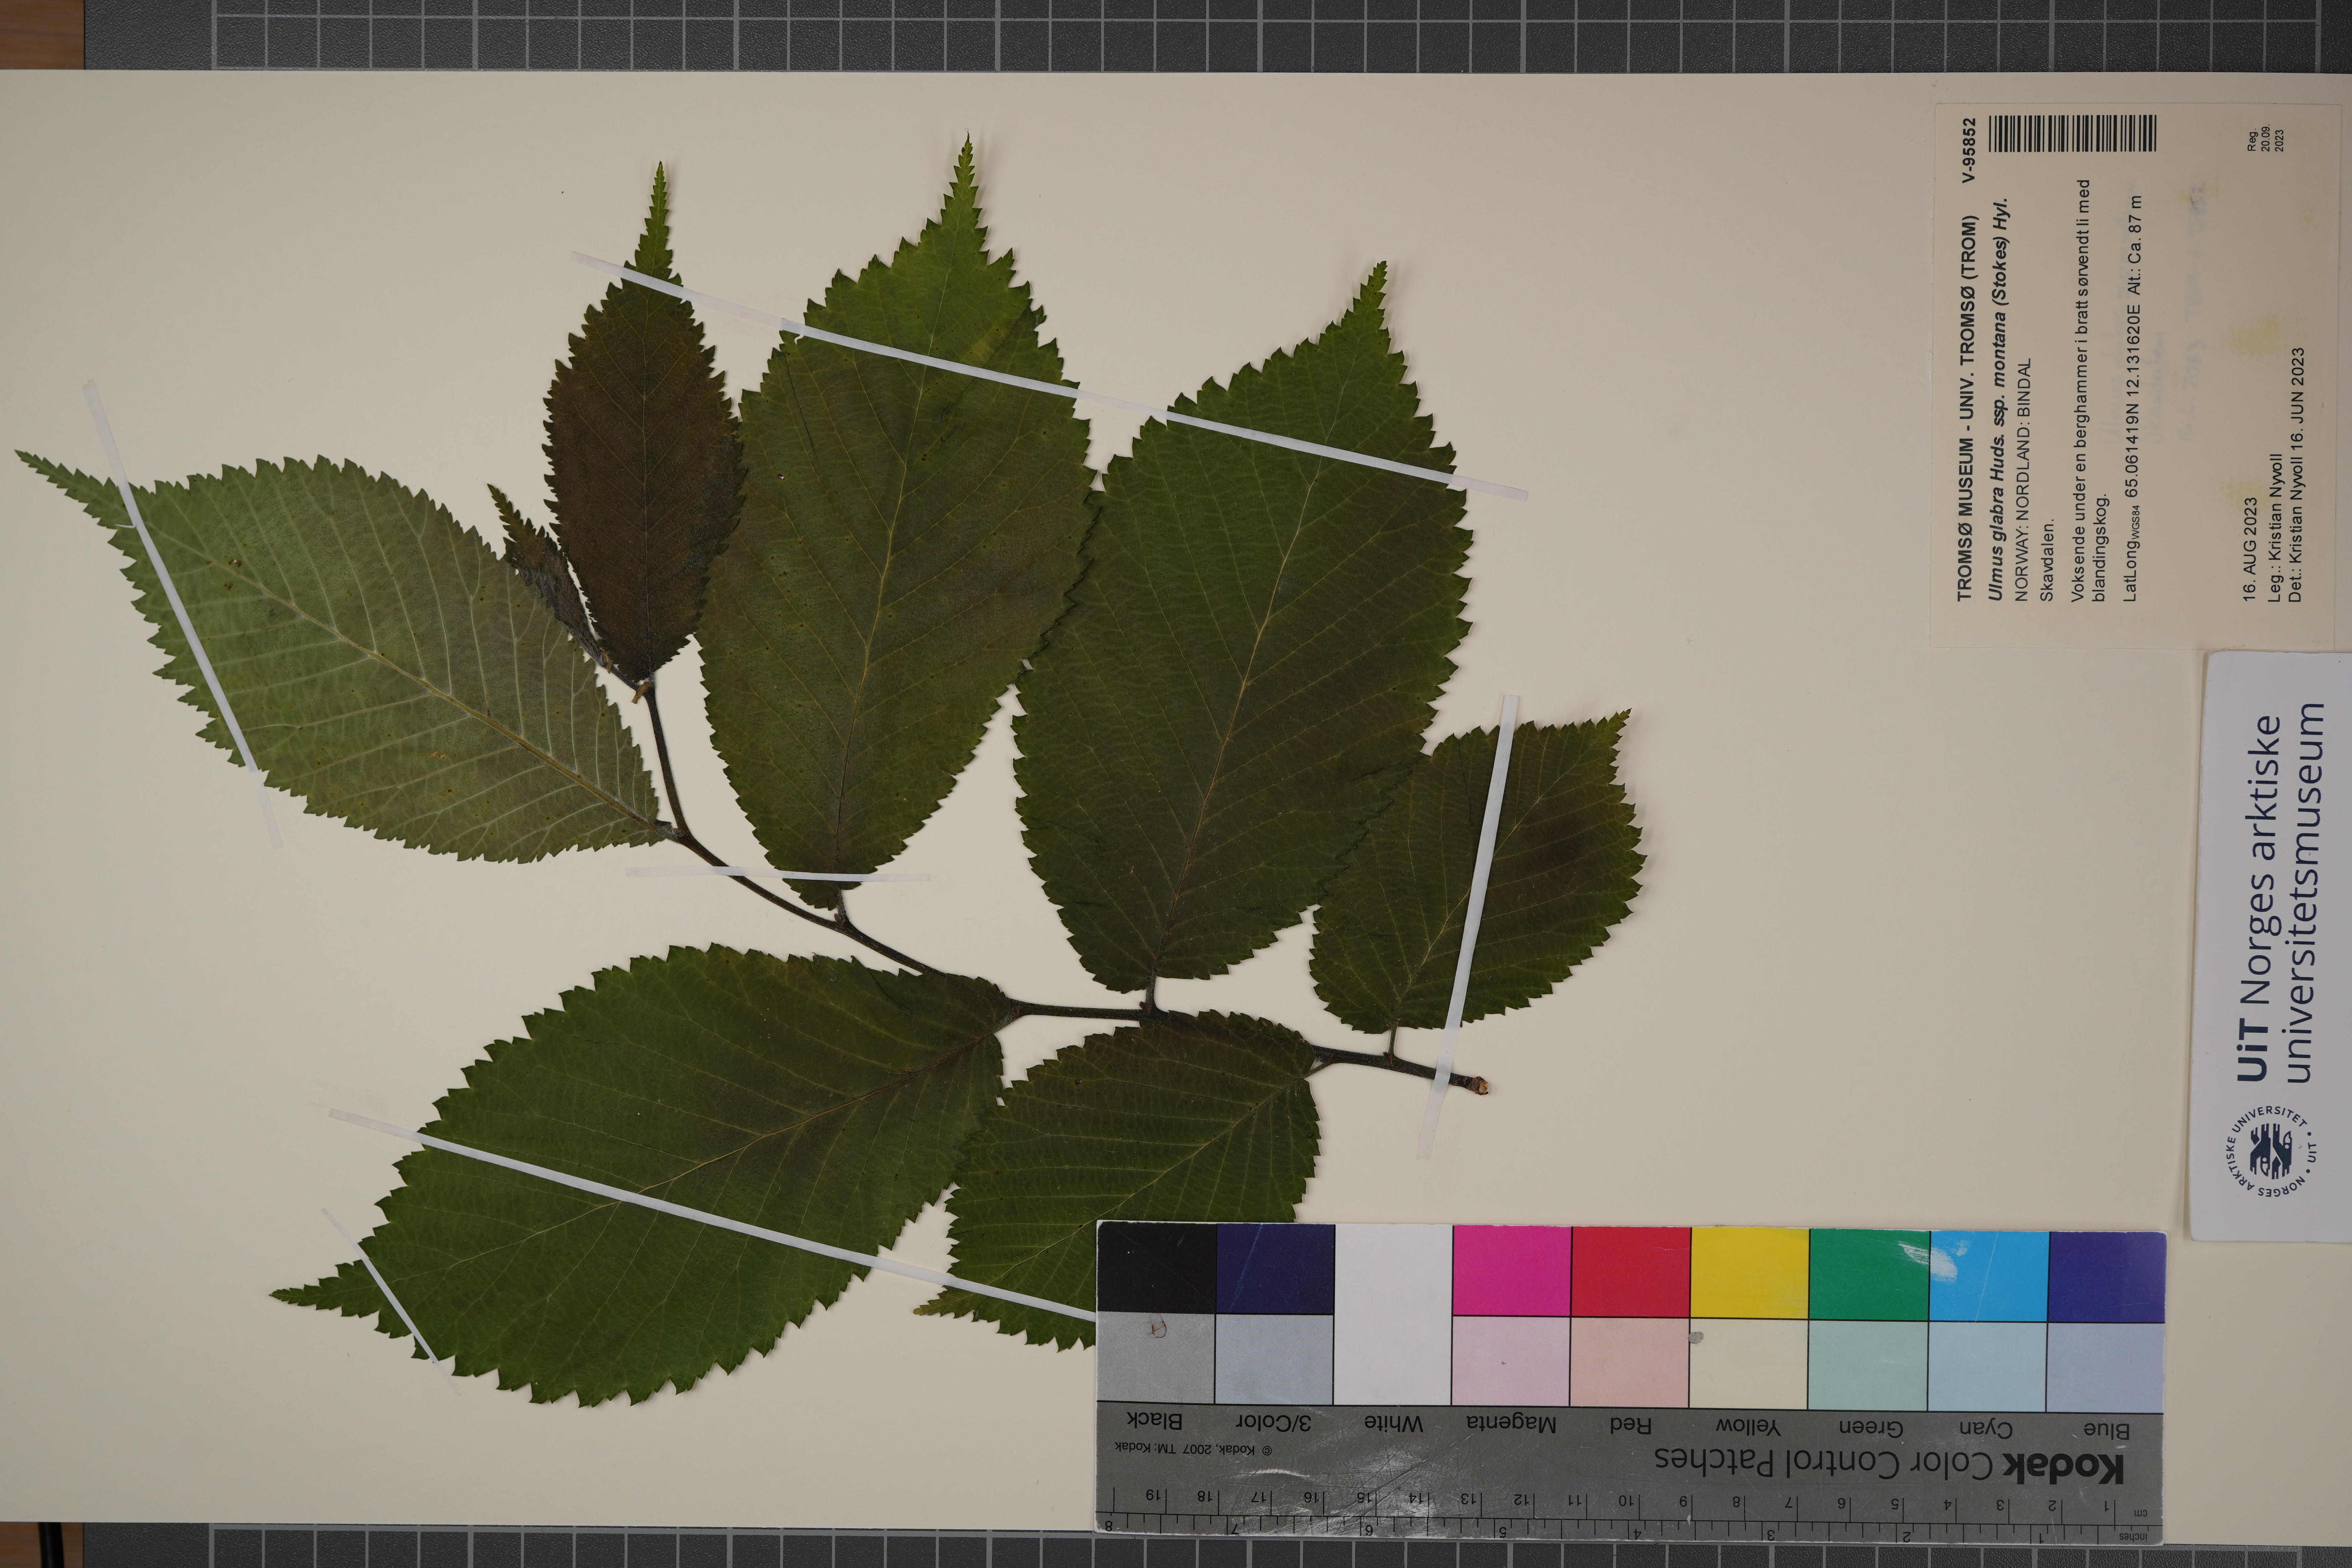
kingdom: Plantae
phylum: Tracheophyta
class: Magnoliopsida
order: Rosales
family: Ulmaceae
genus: Ulmus
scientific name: Ulmus glabra
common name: Wych elm
